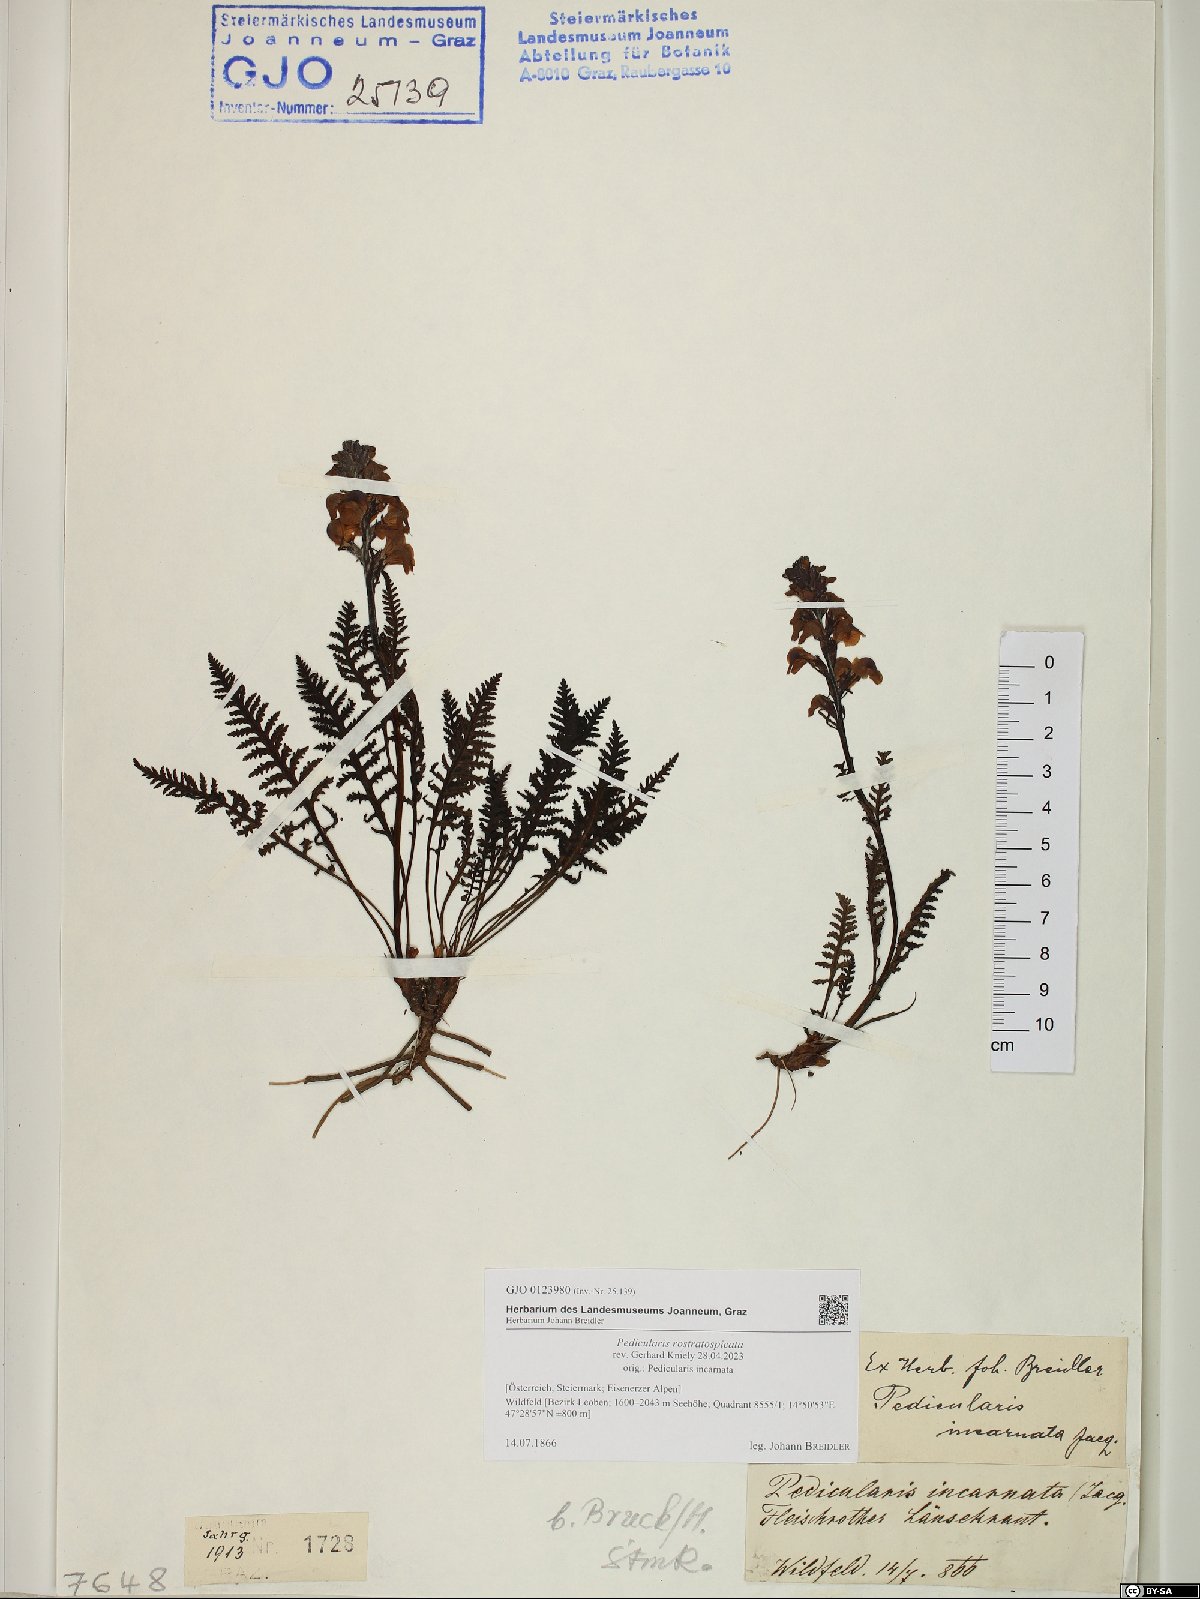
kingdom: Plantae
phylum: Tracheophyta
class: Magnoliopsida
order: Lamiales
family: Orobanchaceae
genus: Pedicularis
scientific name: Pedicularis rostratospicata
